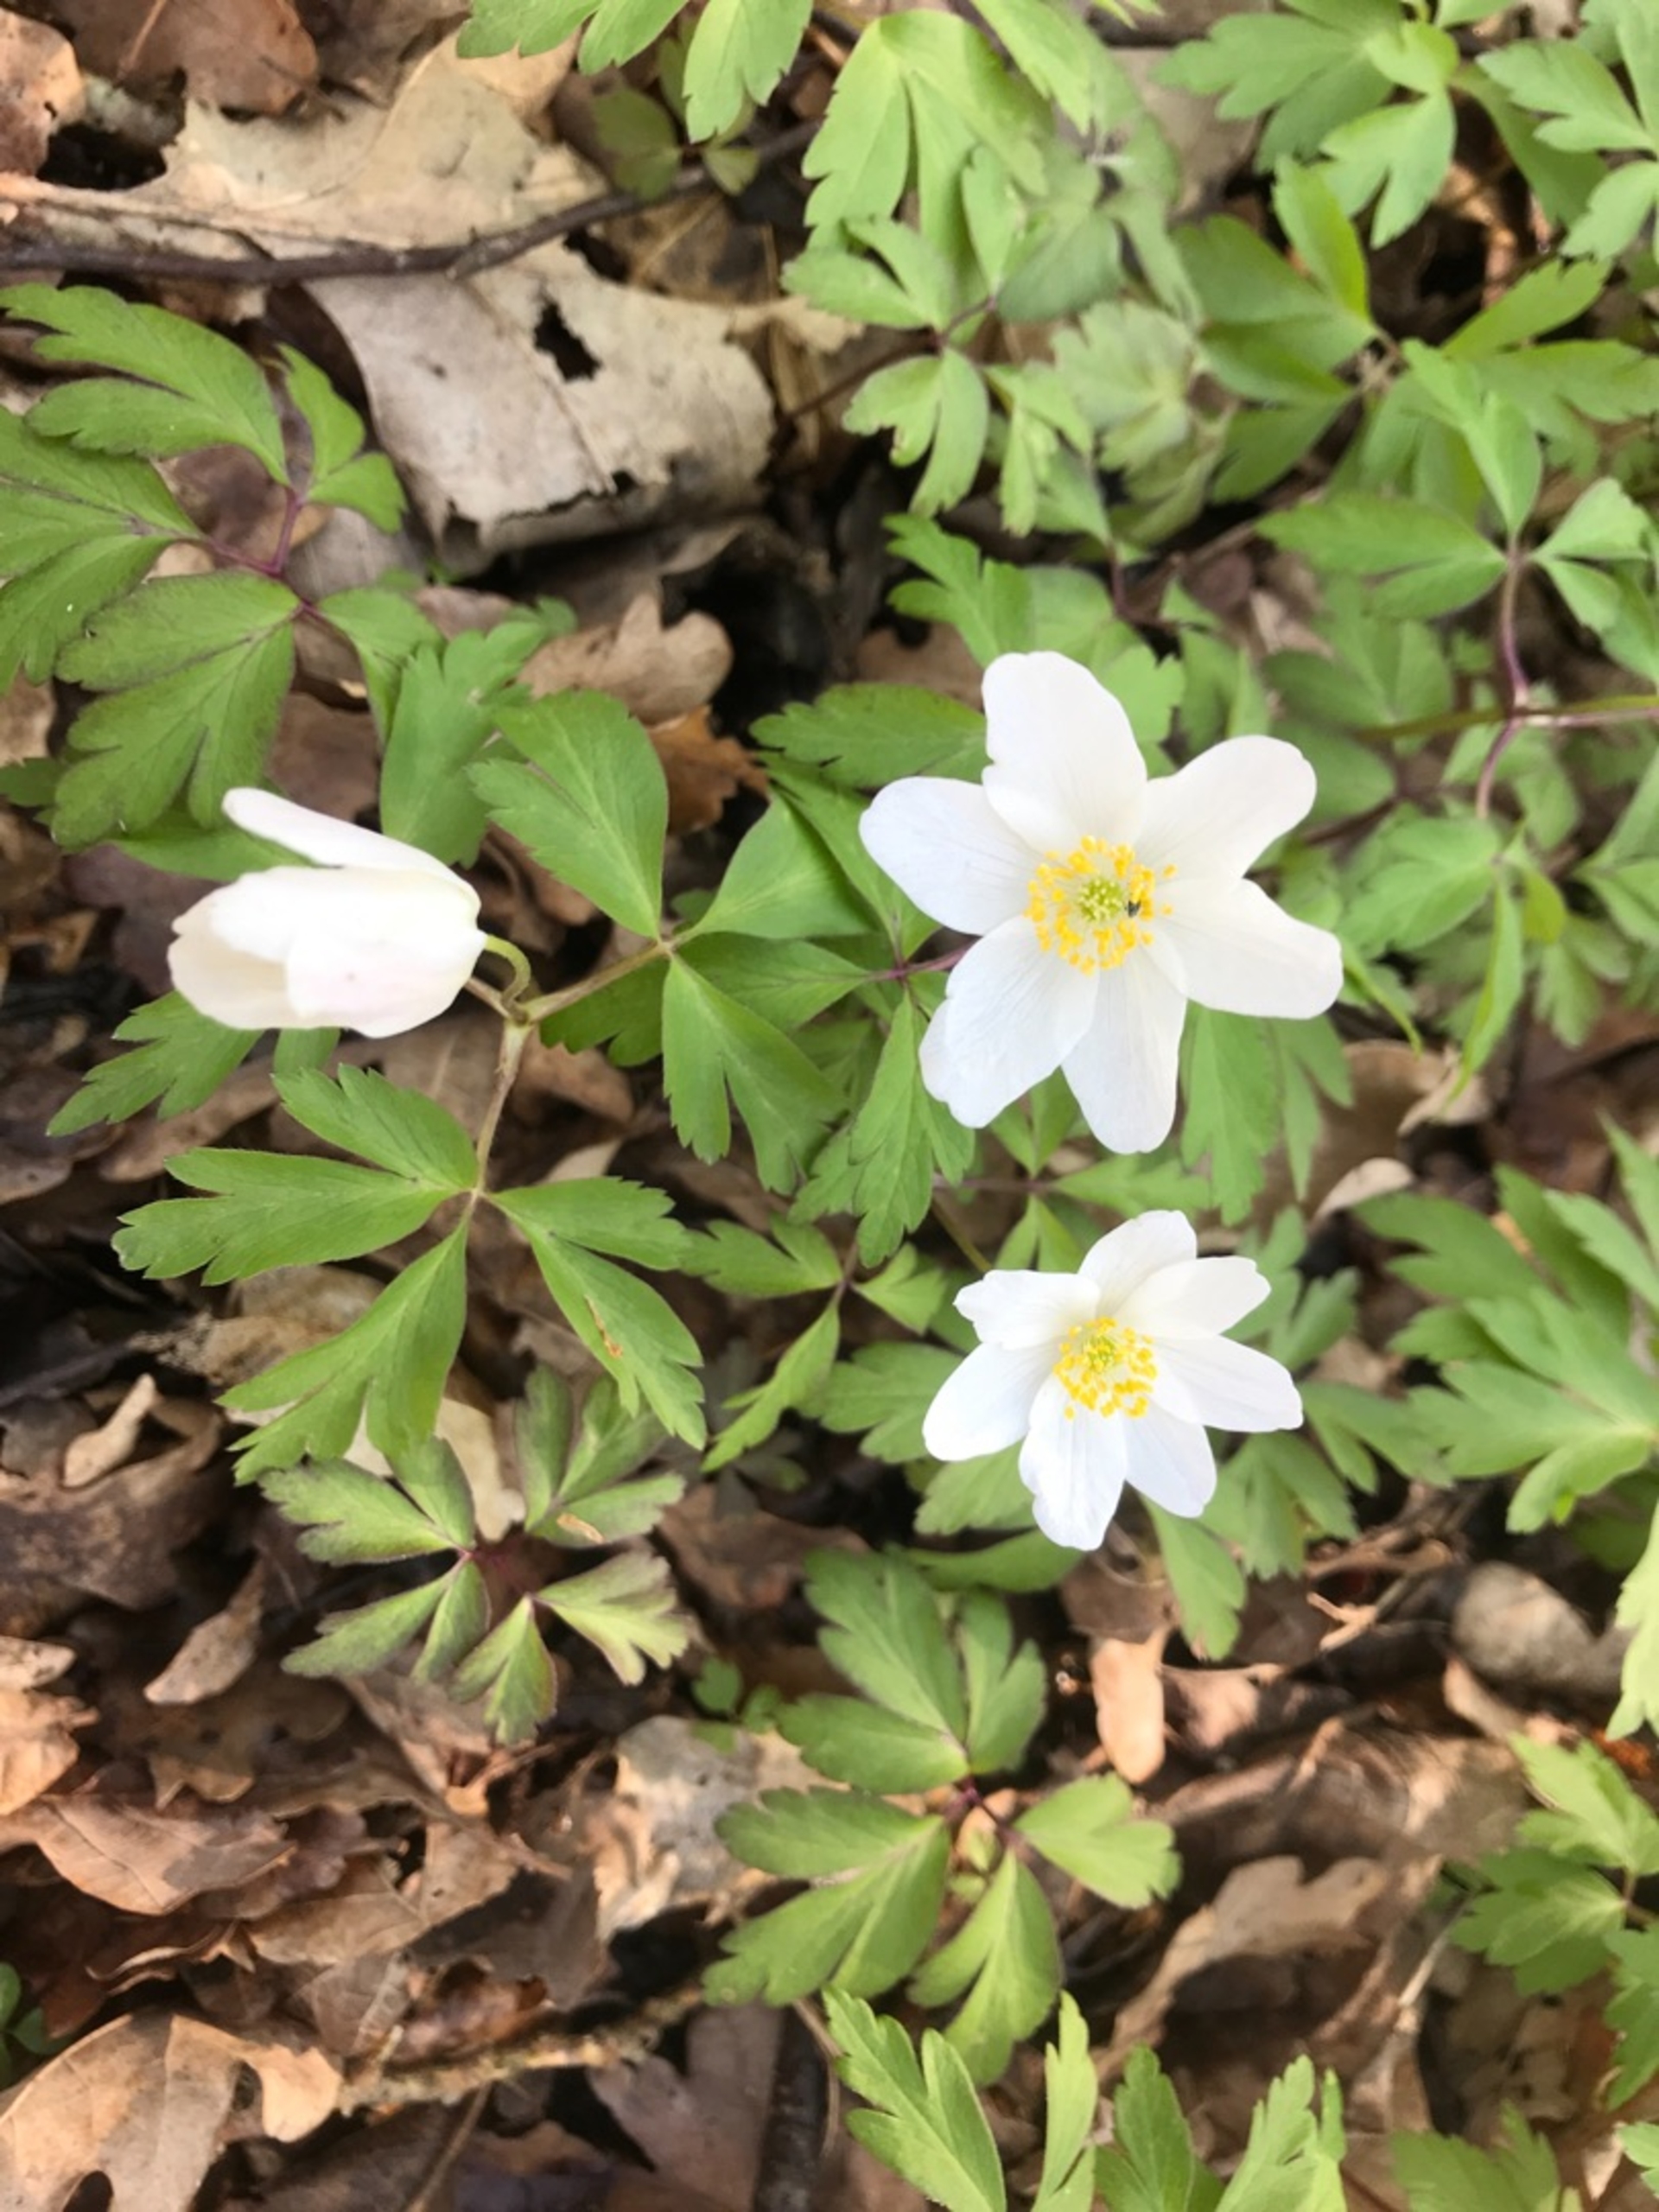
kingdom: Plantae
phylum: Tracheophyta
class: Magnoliopsida
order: Ranunculales
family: Ranunculaceae
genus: Anemone
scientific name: Anemone nemorosa
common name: Hvid anemone
